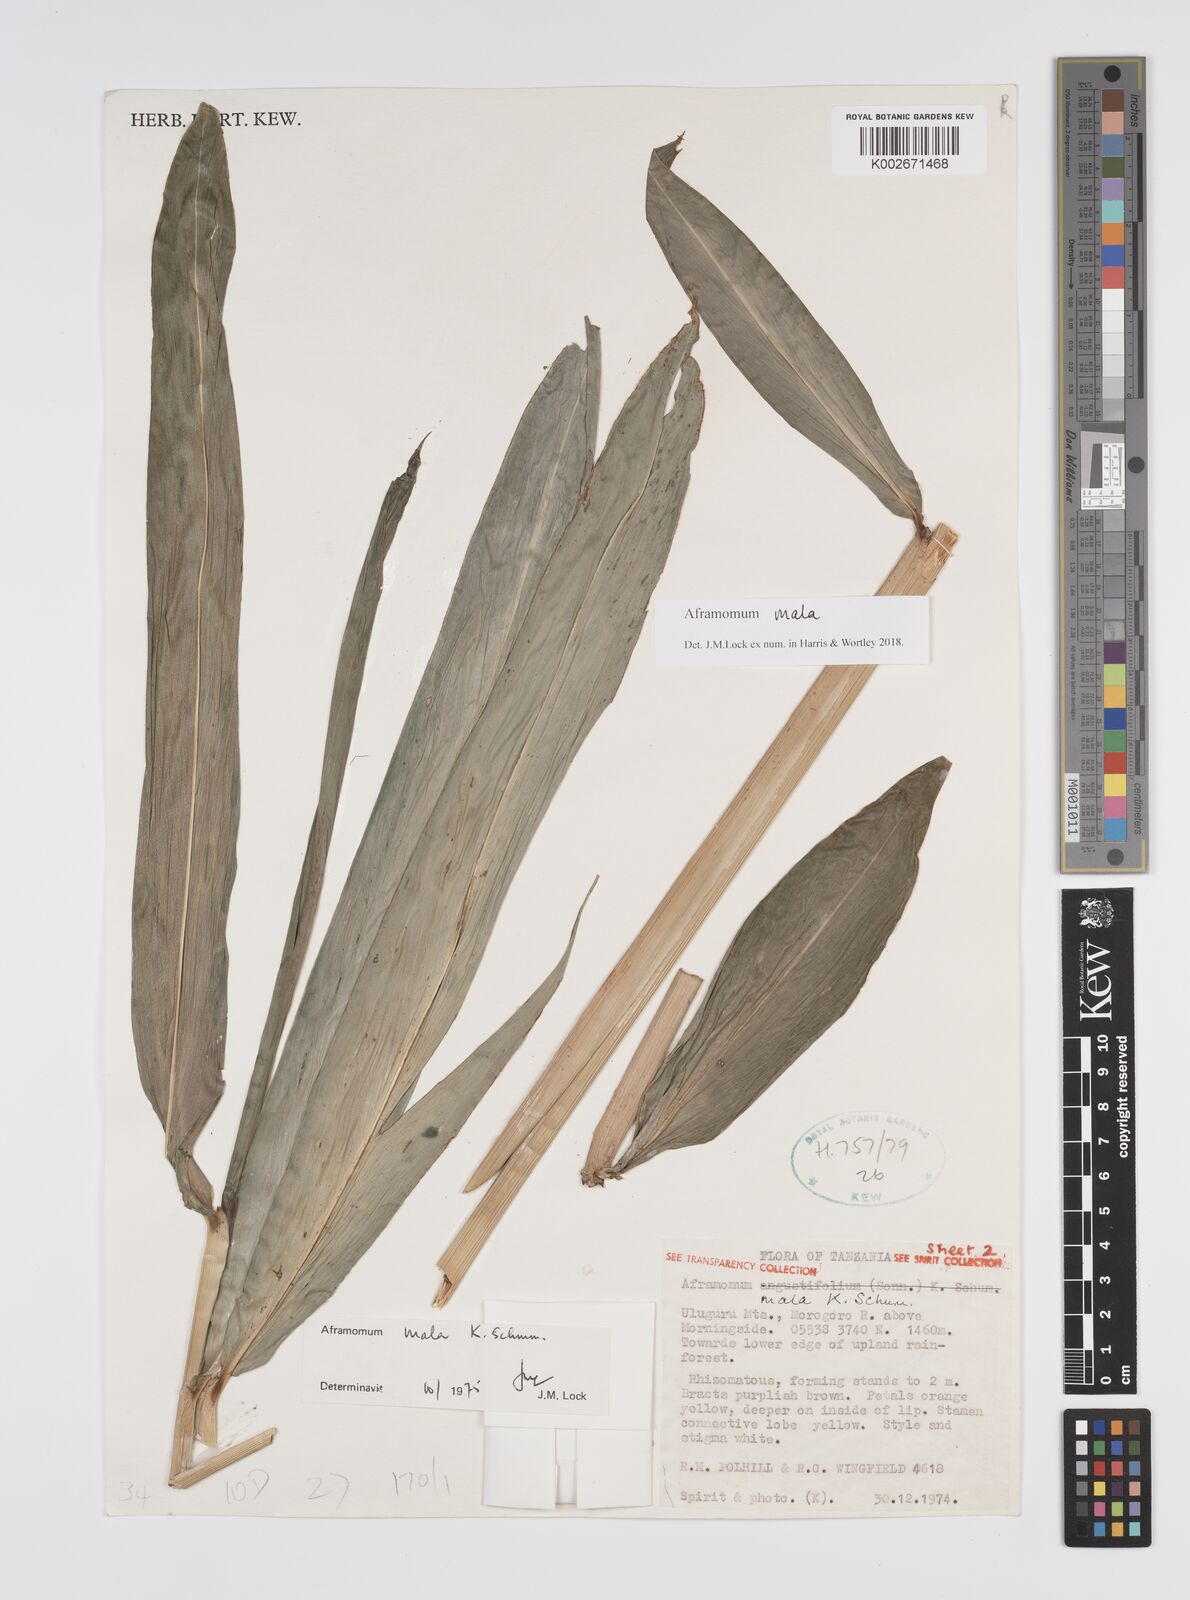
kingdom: Plantae
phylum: Tracheophyta
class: Liliopsida
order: Zingiberales
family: Zingiberaceae
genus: Aframomum
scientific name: Aframomum mala
